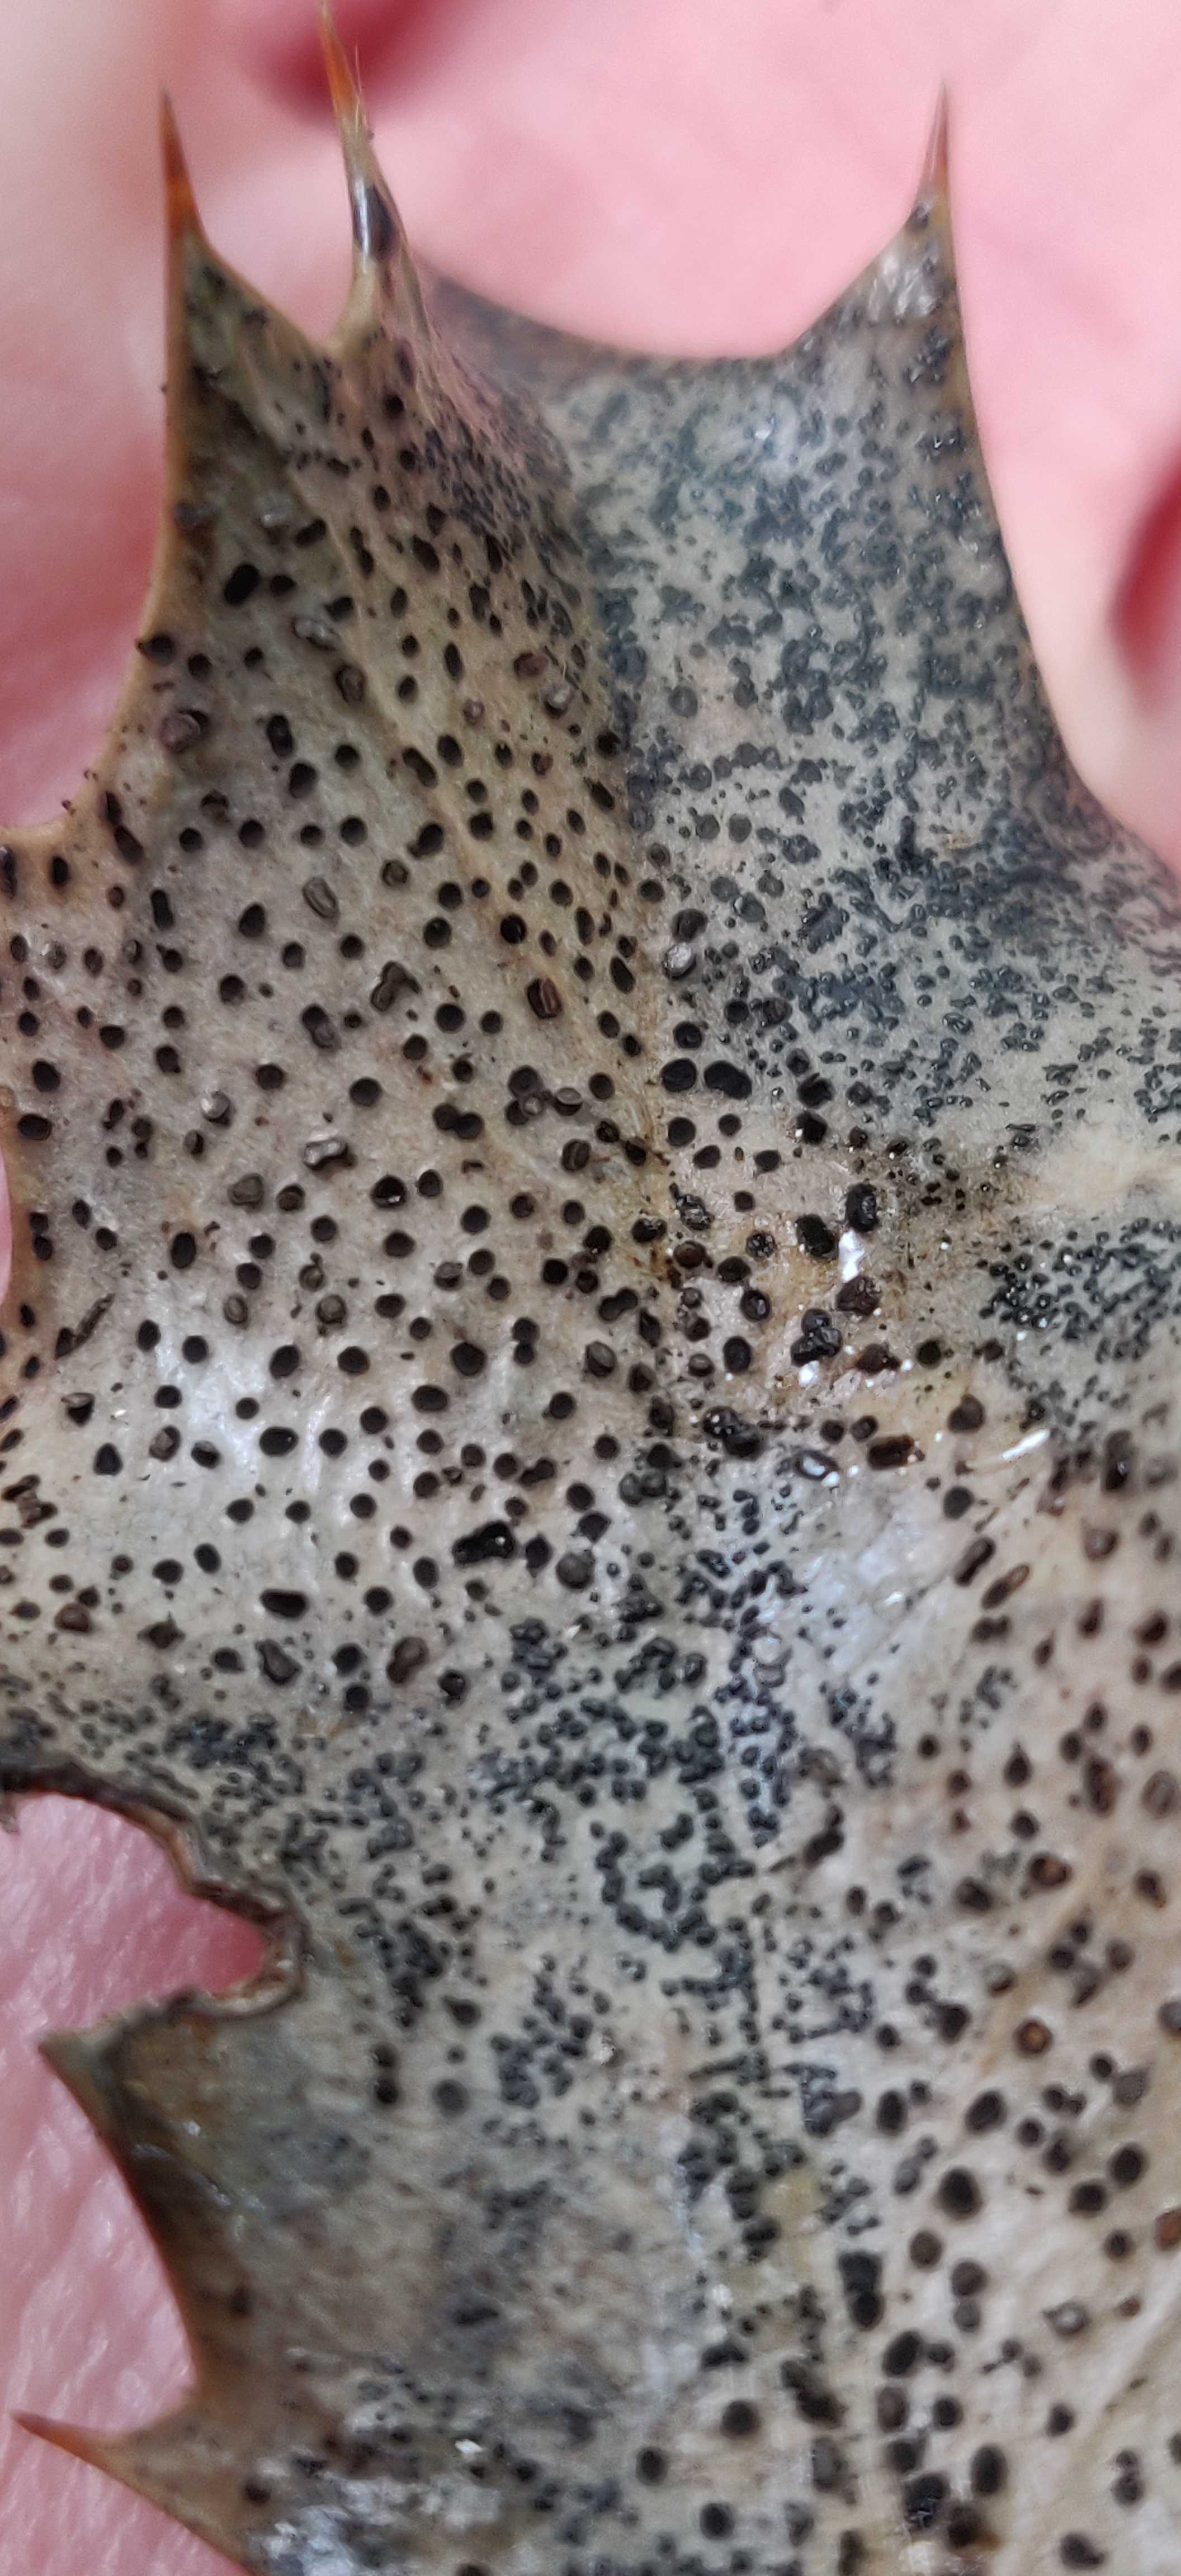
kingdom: Fungi
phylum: Ascomycota
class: Leotiomycetes
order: Helotiales
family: Cenangiaceae
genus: Trochila
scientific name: Trochila ilicina
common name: kristtorn-lågskive
